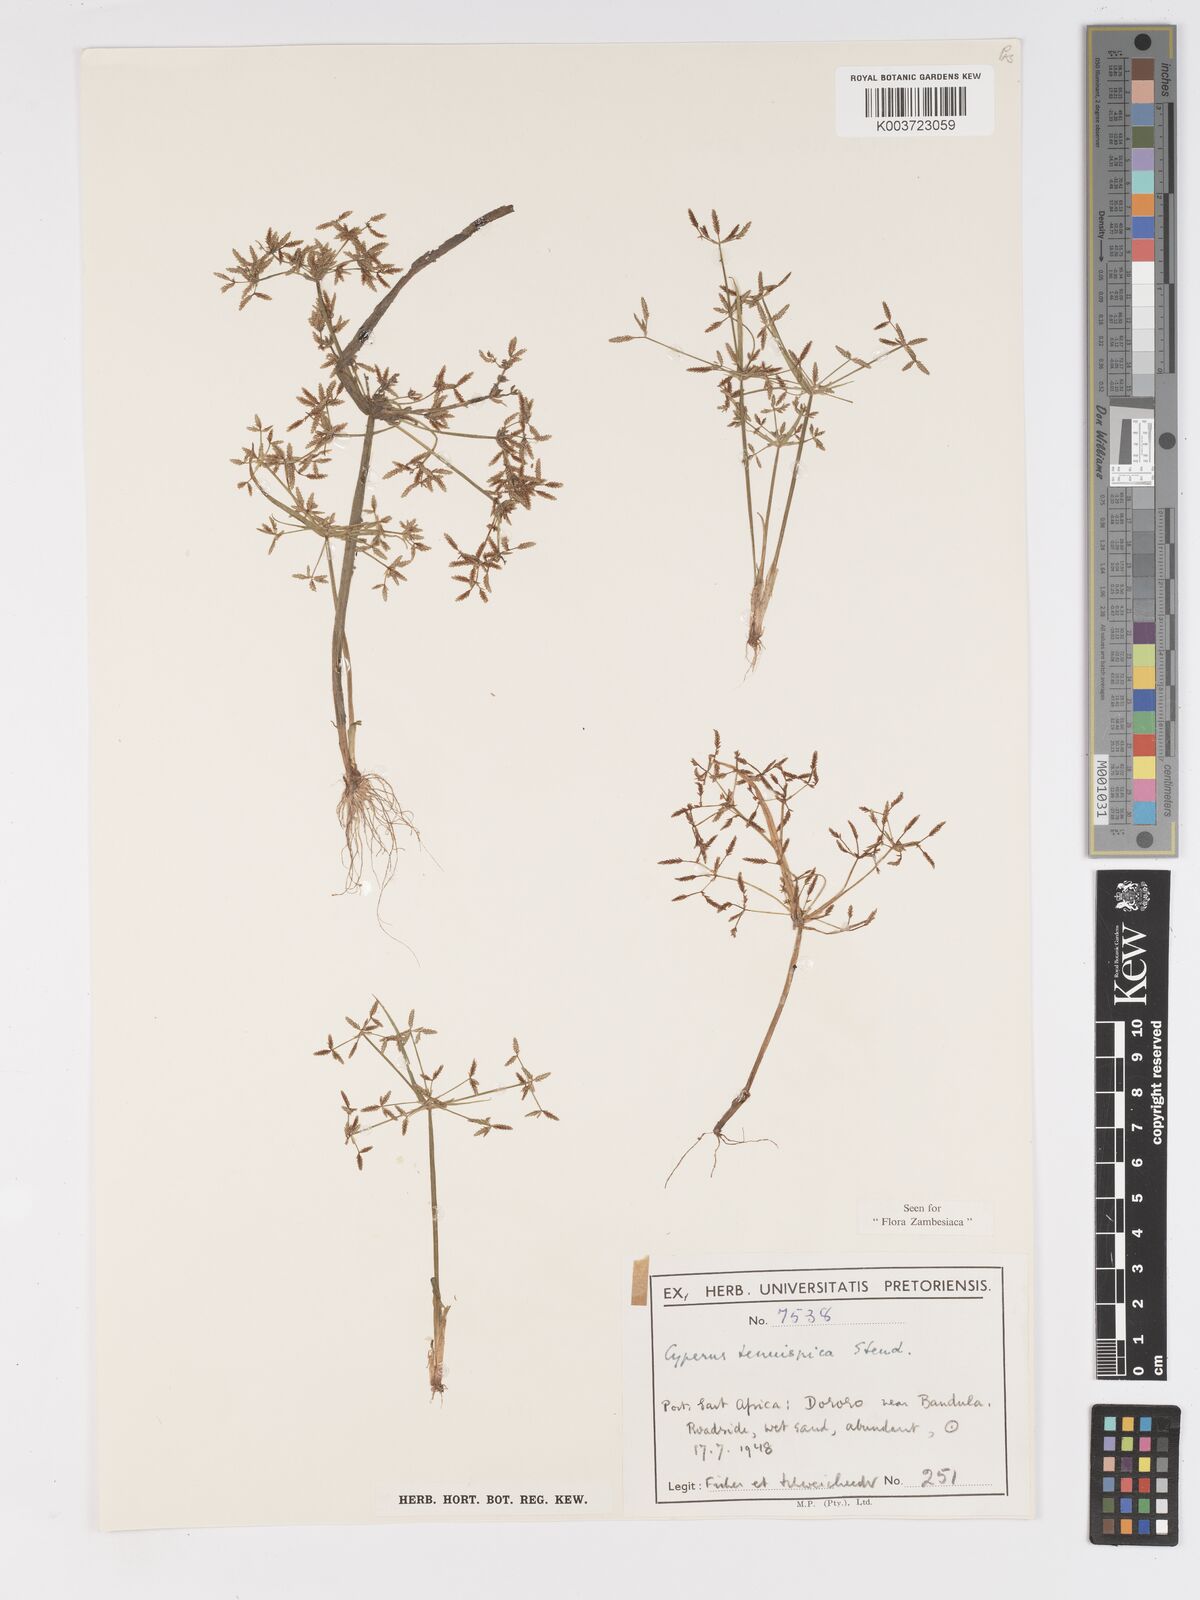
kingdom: Plantae
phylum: Tracheophyta
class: Liliopsida
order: Poales
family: Cyperaceae
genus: Cyperus
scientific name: Cyperus tenuispica
